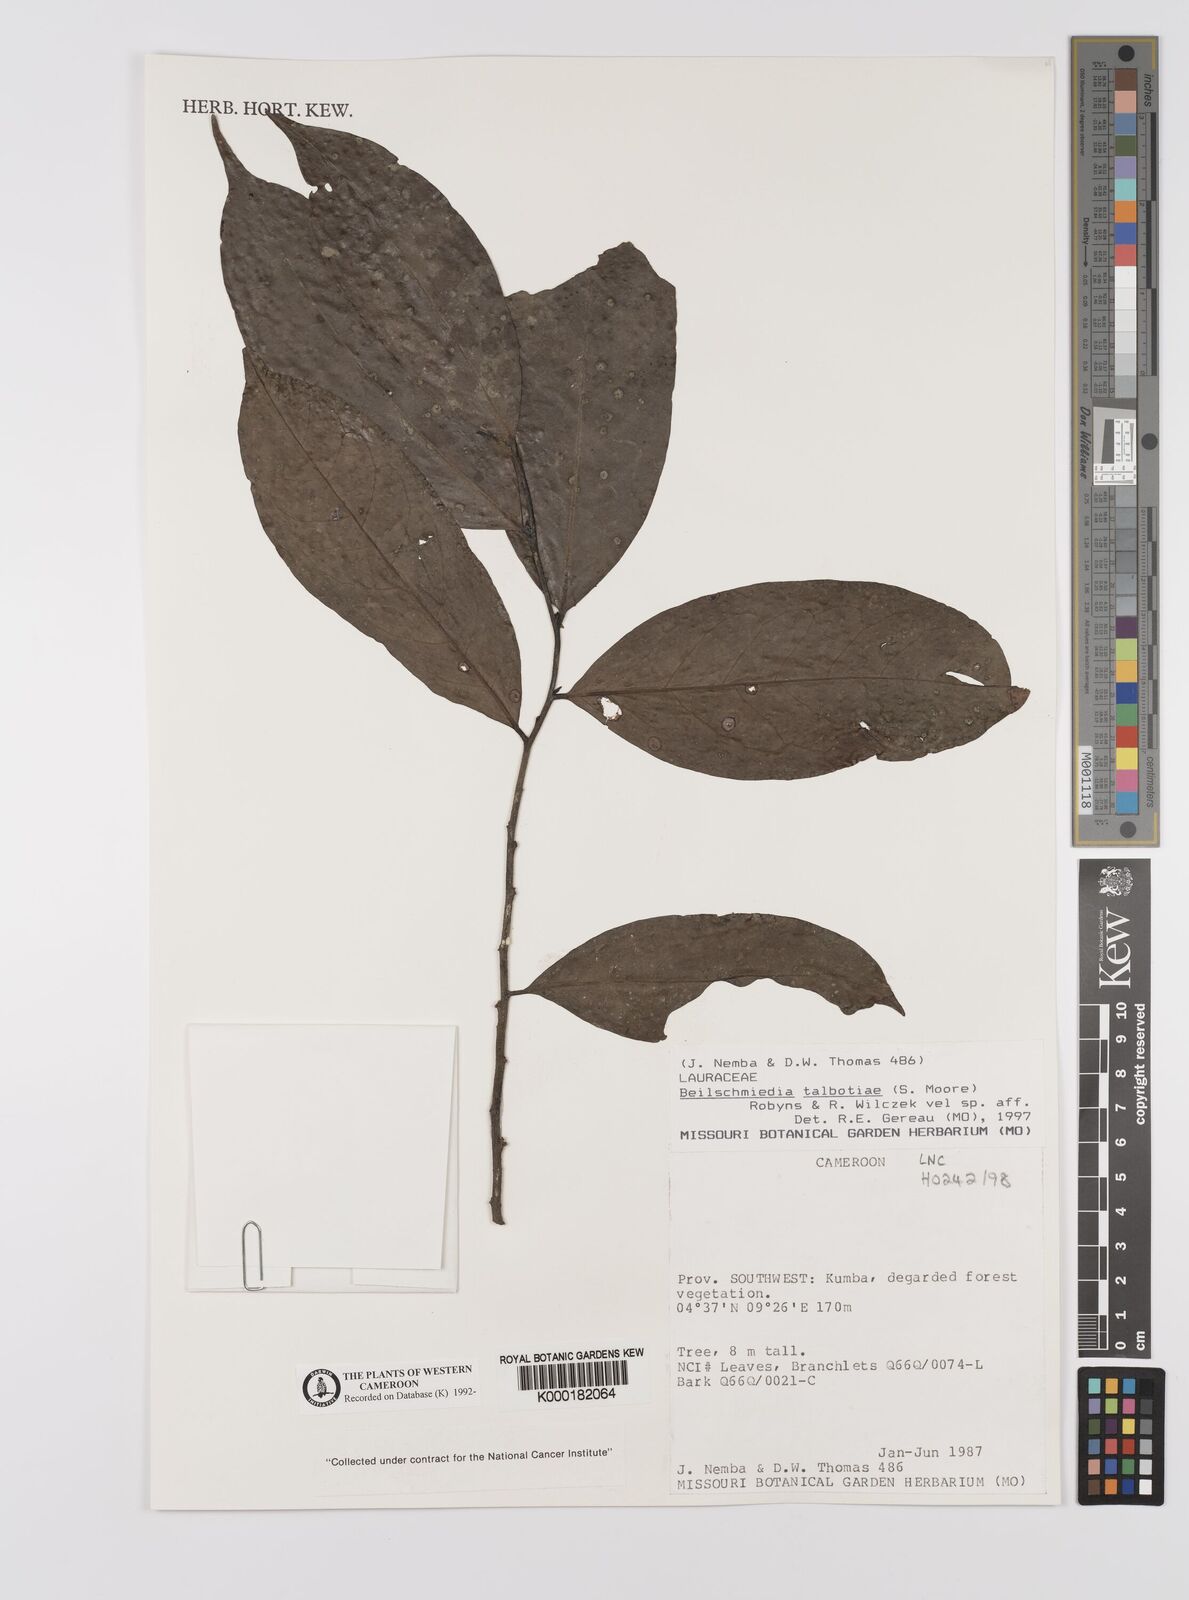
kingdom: Plantae
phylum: Tracheophyta
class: Magnoliopsida
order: Laurales
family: Lauraceae
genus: Beilschmiedia
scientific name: Beilschmiedia talbotiae
